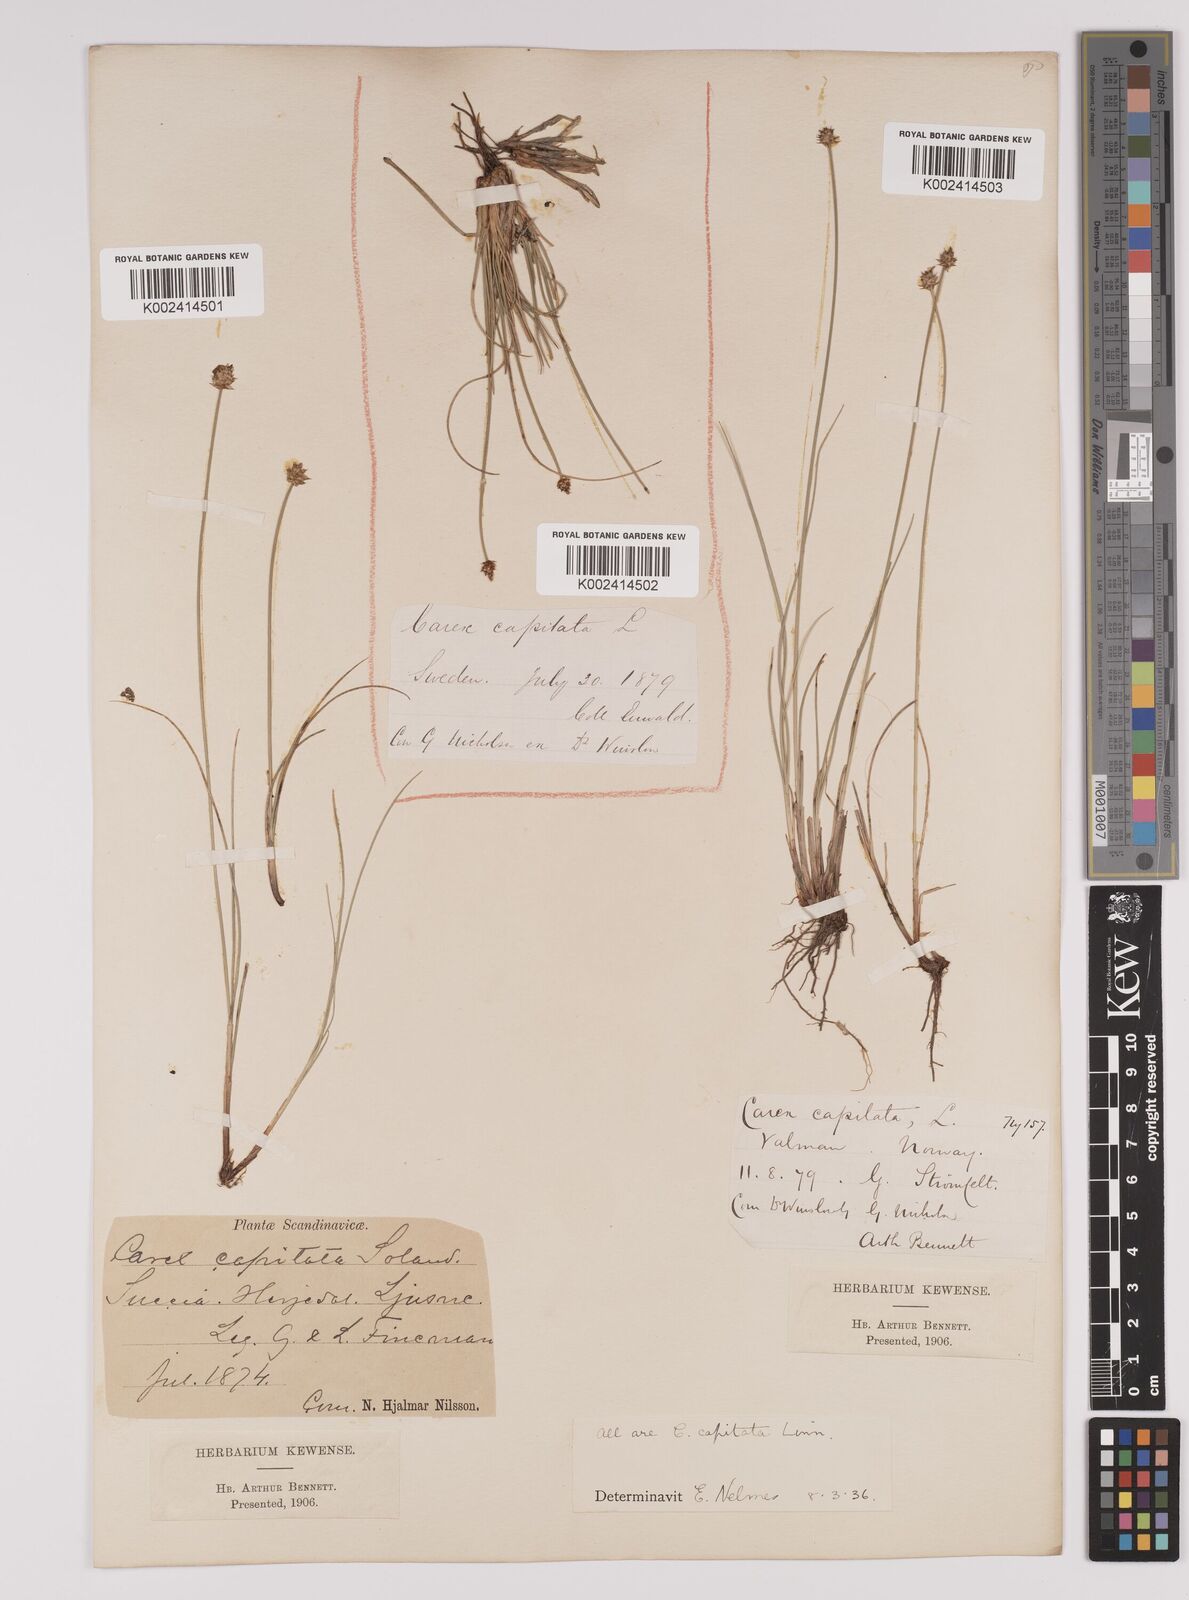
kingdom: Plantae
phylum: Tracheophyta
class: Liliopsida
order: Poales
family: Cyperaceae
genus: Carex
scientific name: Carex capitata
